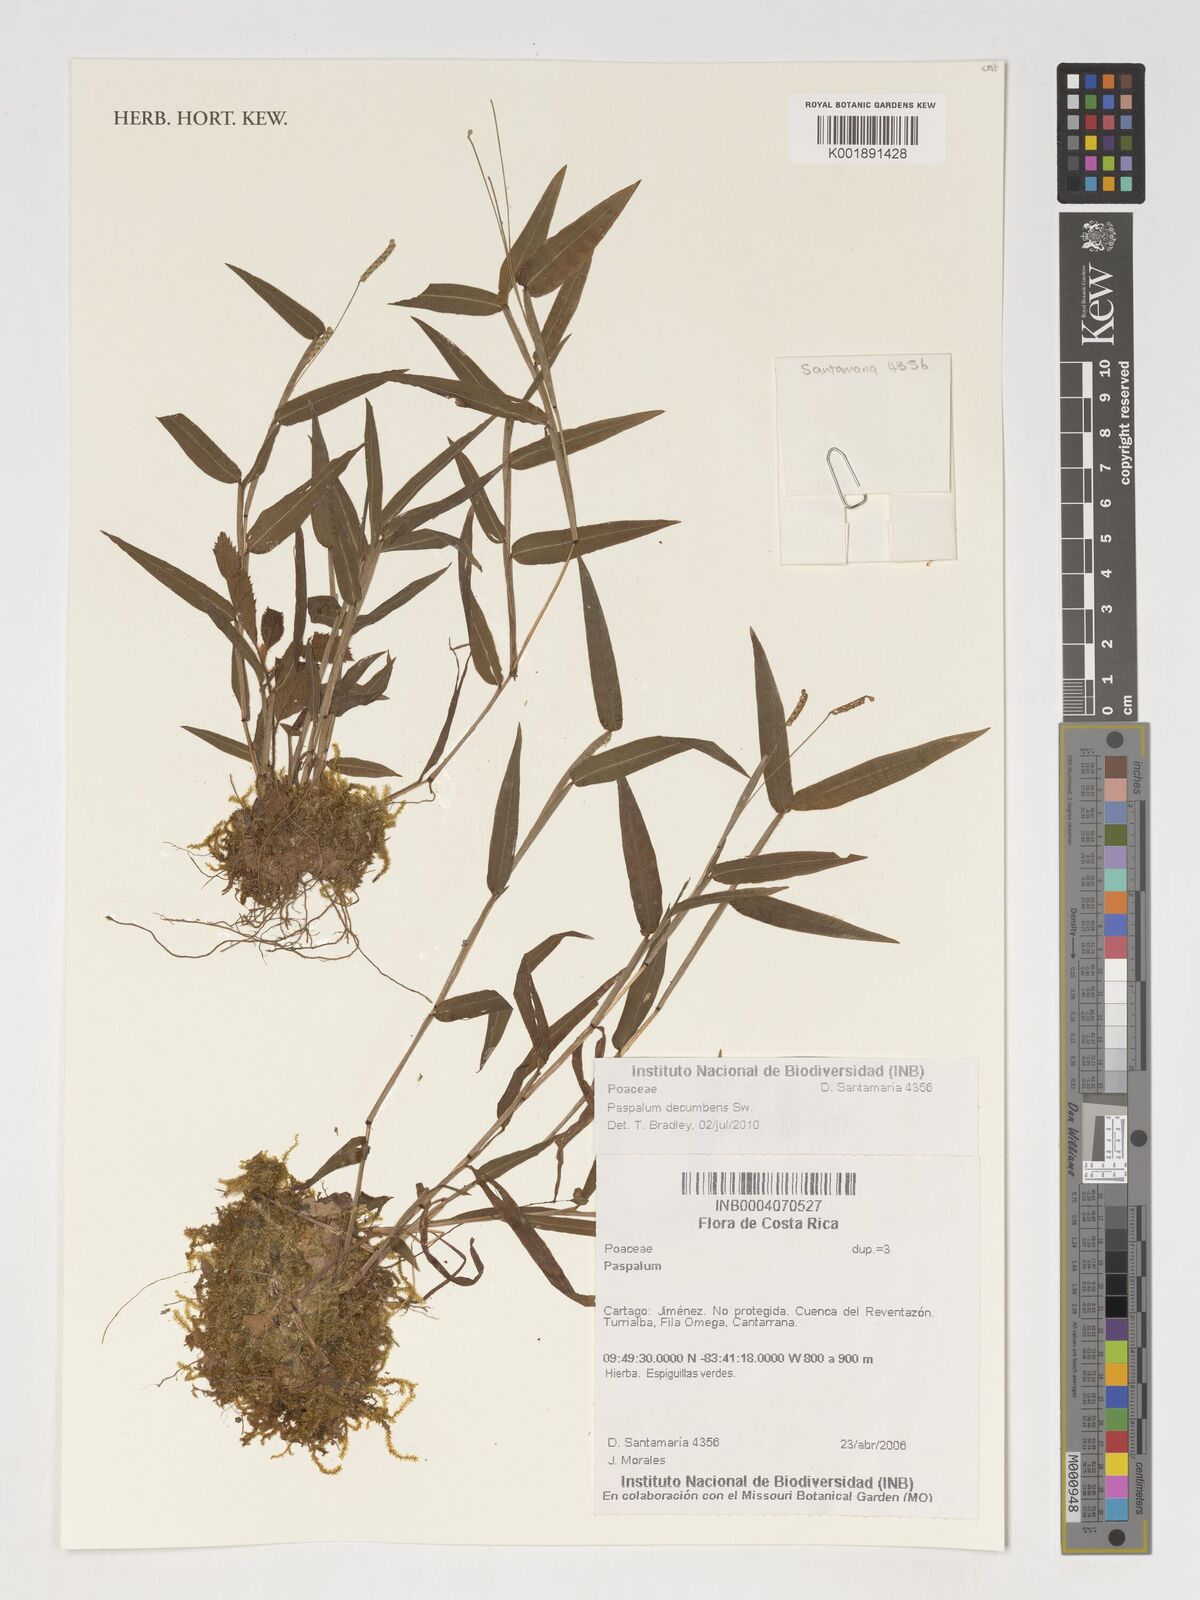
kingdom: Plantae
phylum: Tracheophyta
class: Liliopsida
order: Poales
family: Poaceae
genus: Paspalum
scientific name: Paspalum
